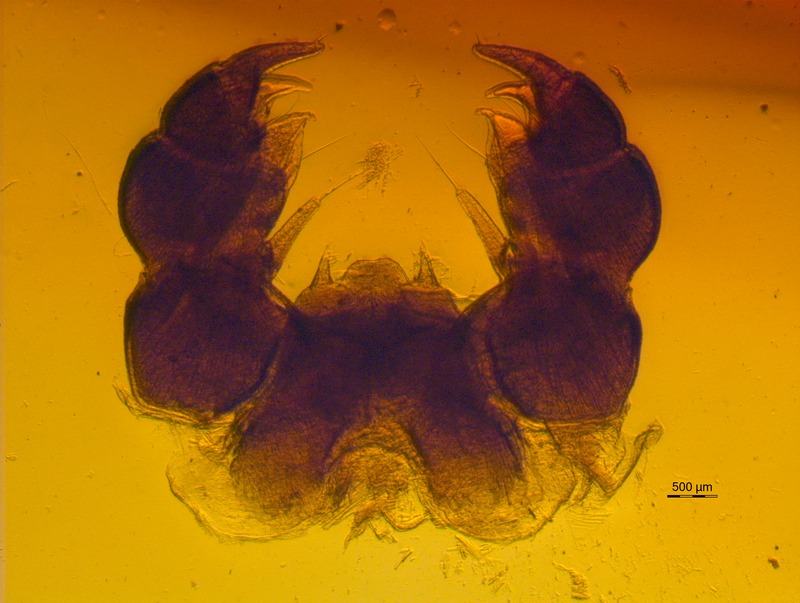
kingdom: Animalia
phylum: Arthropoda
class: Diplopoda
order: Glomerida
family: Glomeridae
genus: Glomeris
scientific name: Glomeris hexasticha
